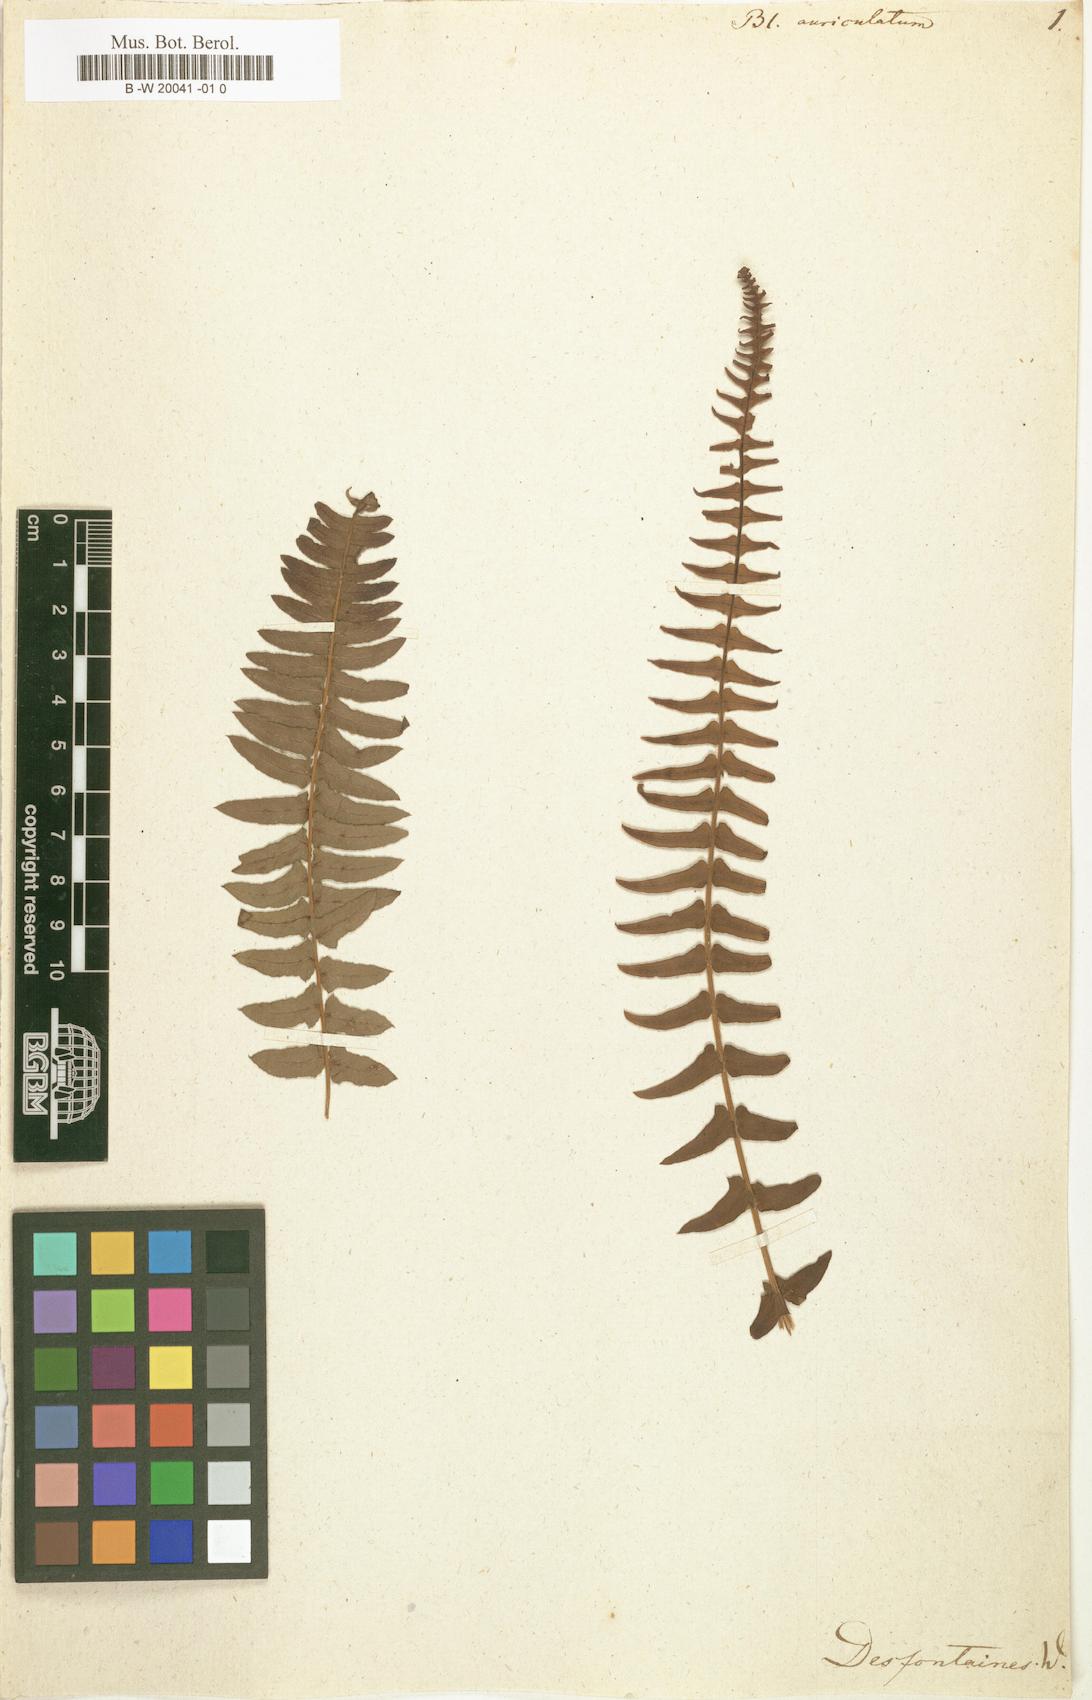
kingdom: Plantae
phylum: Tracheophyta
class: Polypodiopsida
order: Polypodiales
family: Blechnaceae
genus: Blechnum
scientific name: Blechnum auriculatum
